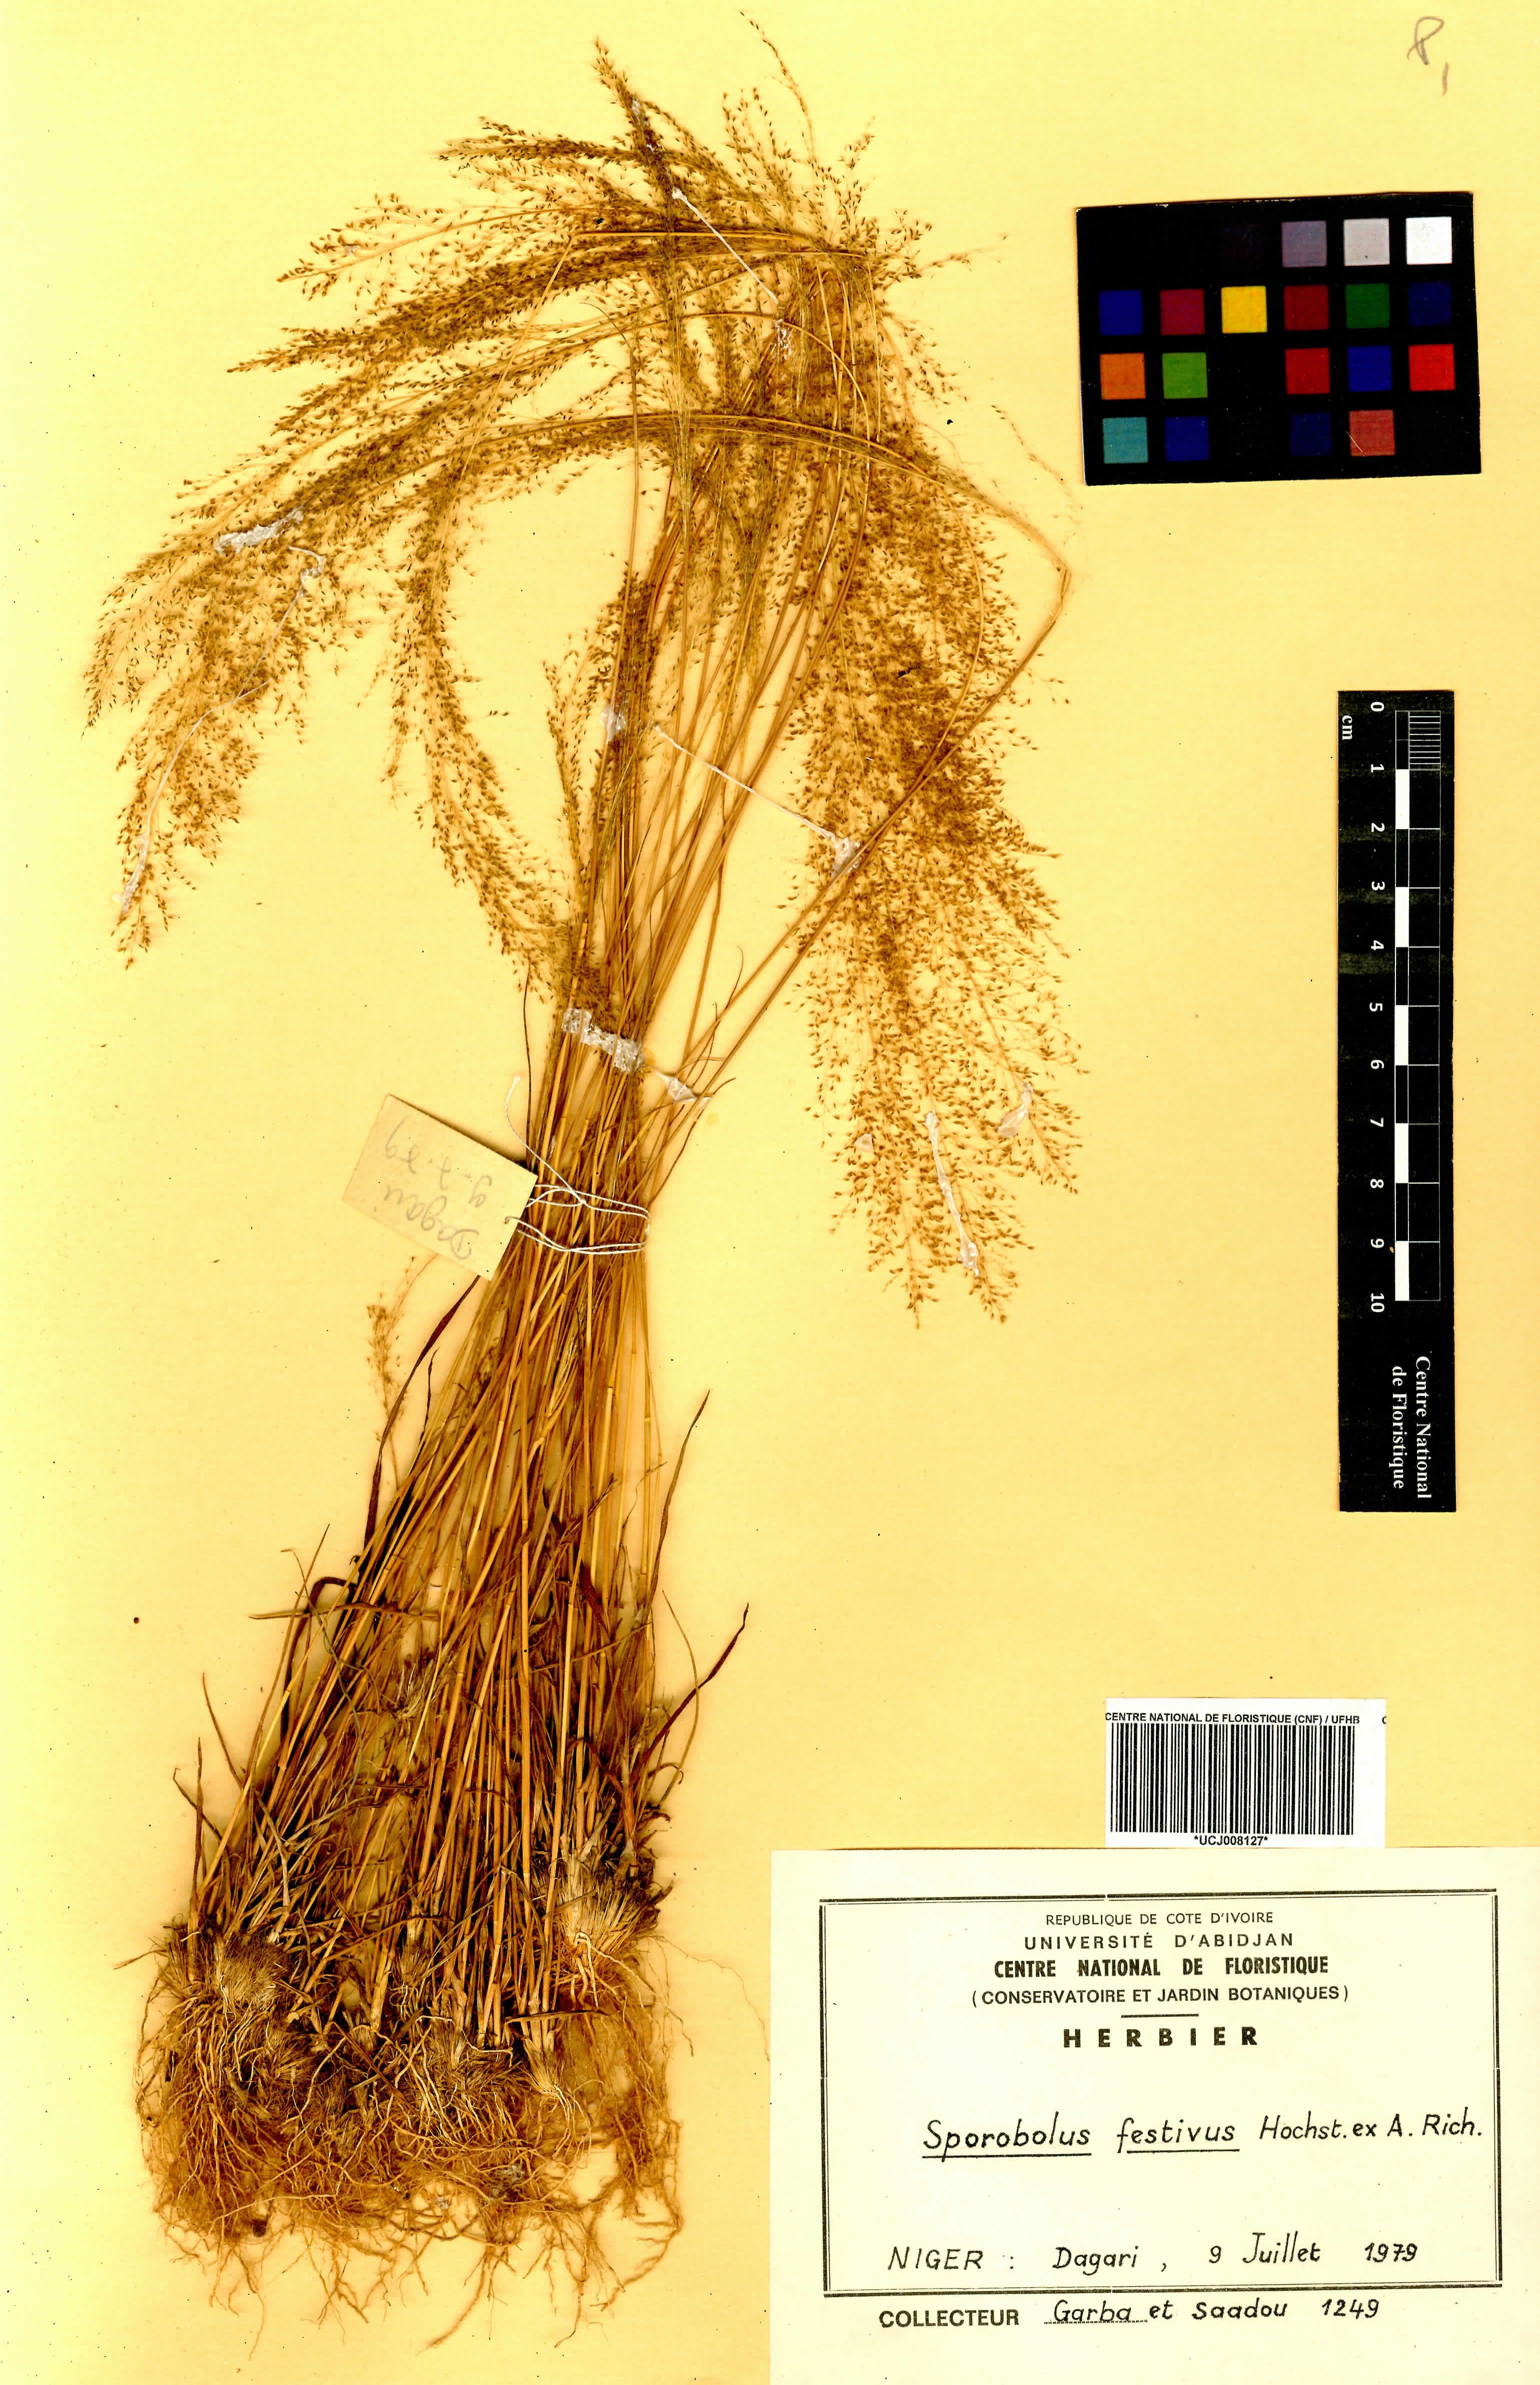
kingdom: Plantae
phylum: Tracheophyta
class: Liliopsida
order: Poales
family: Poaceae
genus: Sporobolus
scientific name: Sporobolus festivus
